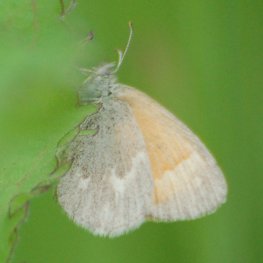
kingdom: Animalia
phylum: Arthropoda
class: Insecta
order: Lepidoptera
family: Nymphalidae
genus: Coenonympha
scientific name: Coenonympha tullia
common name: Large Heath
